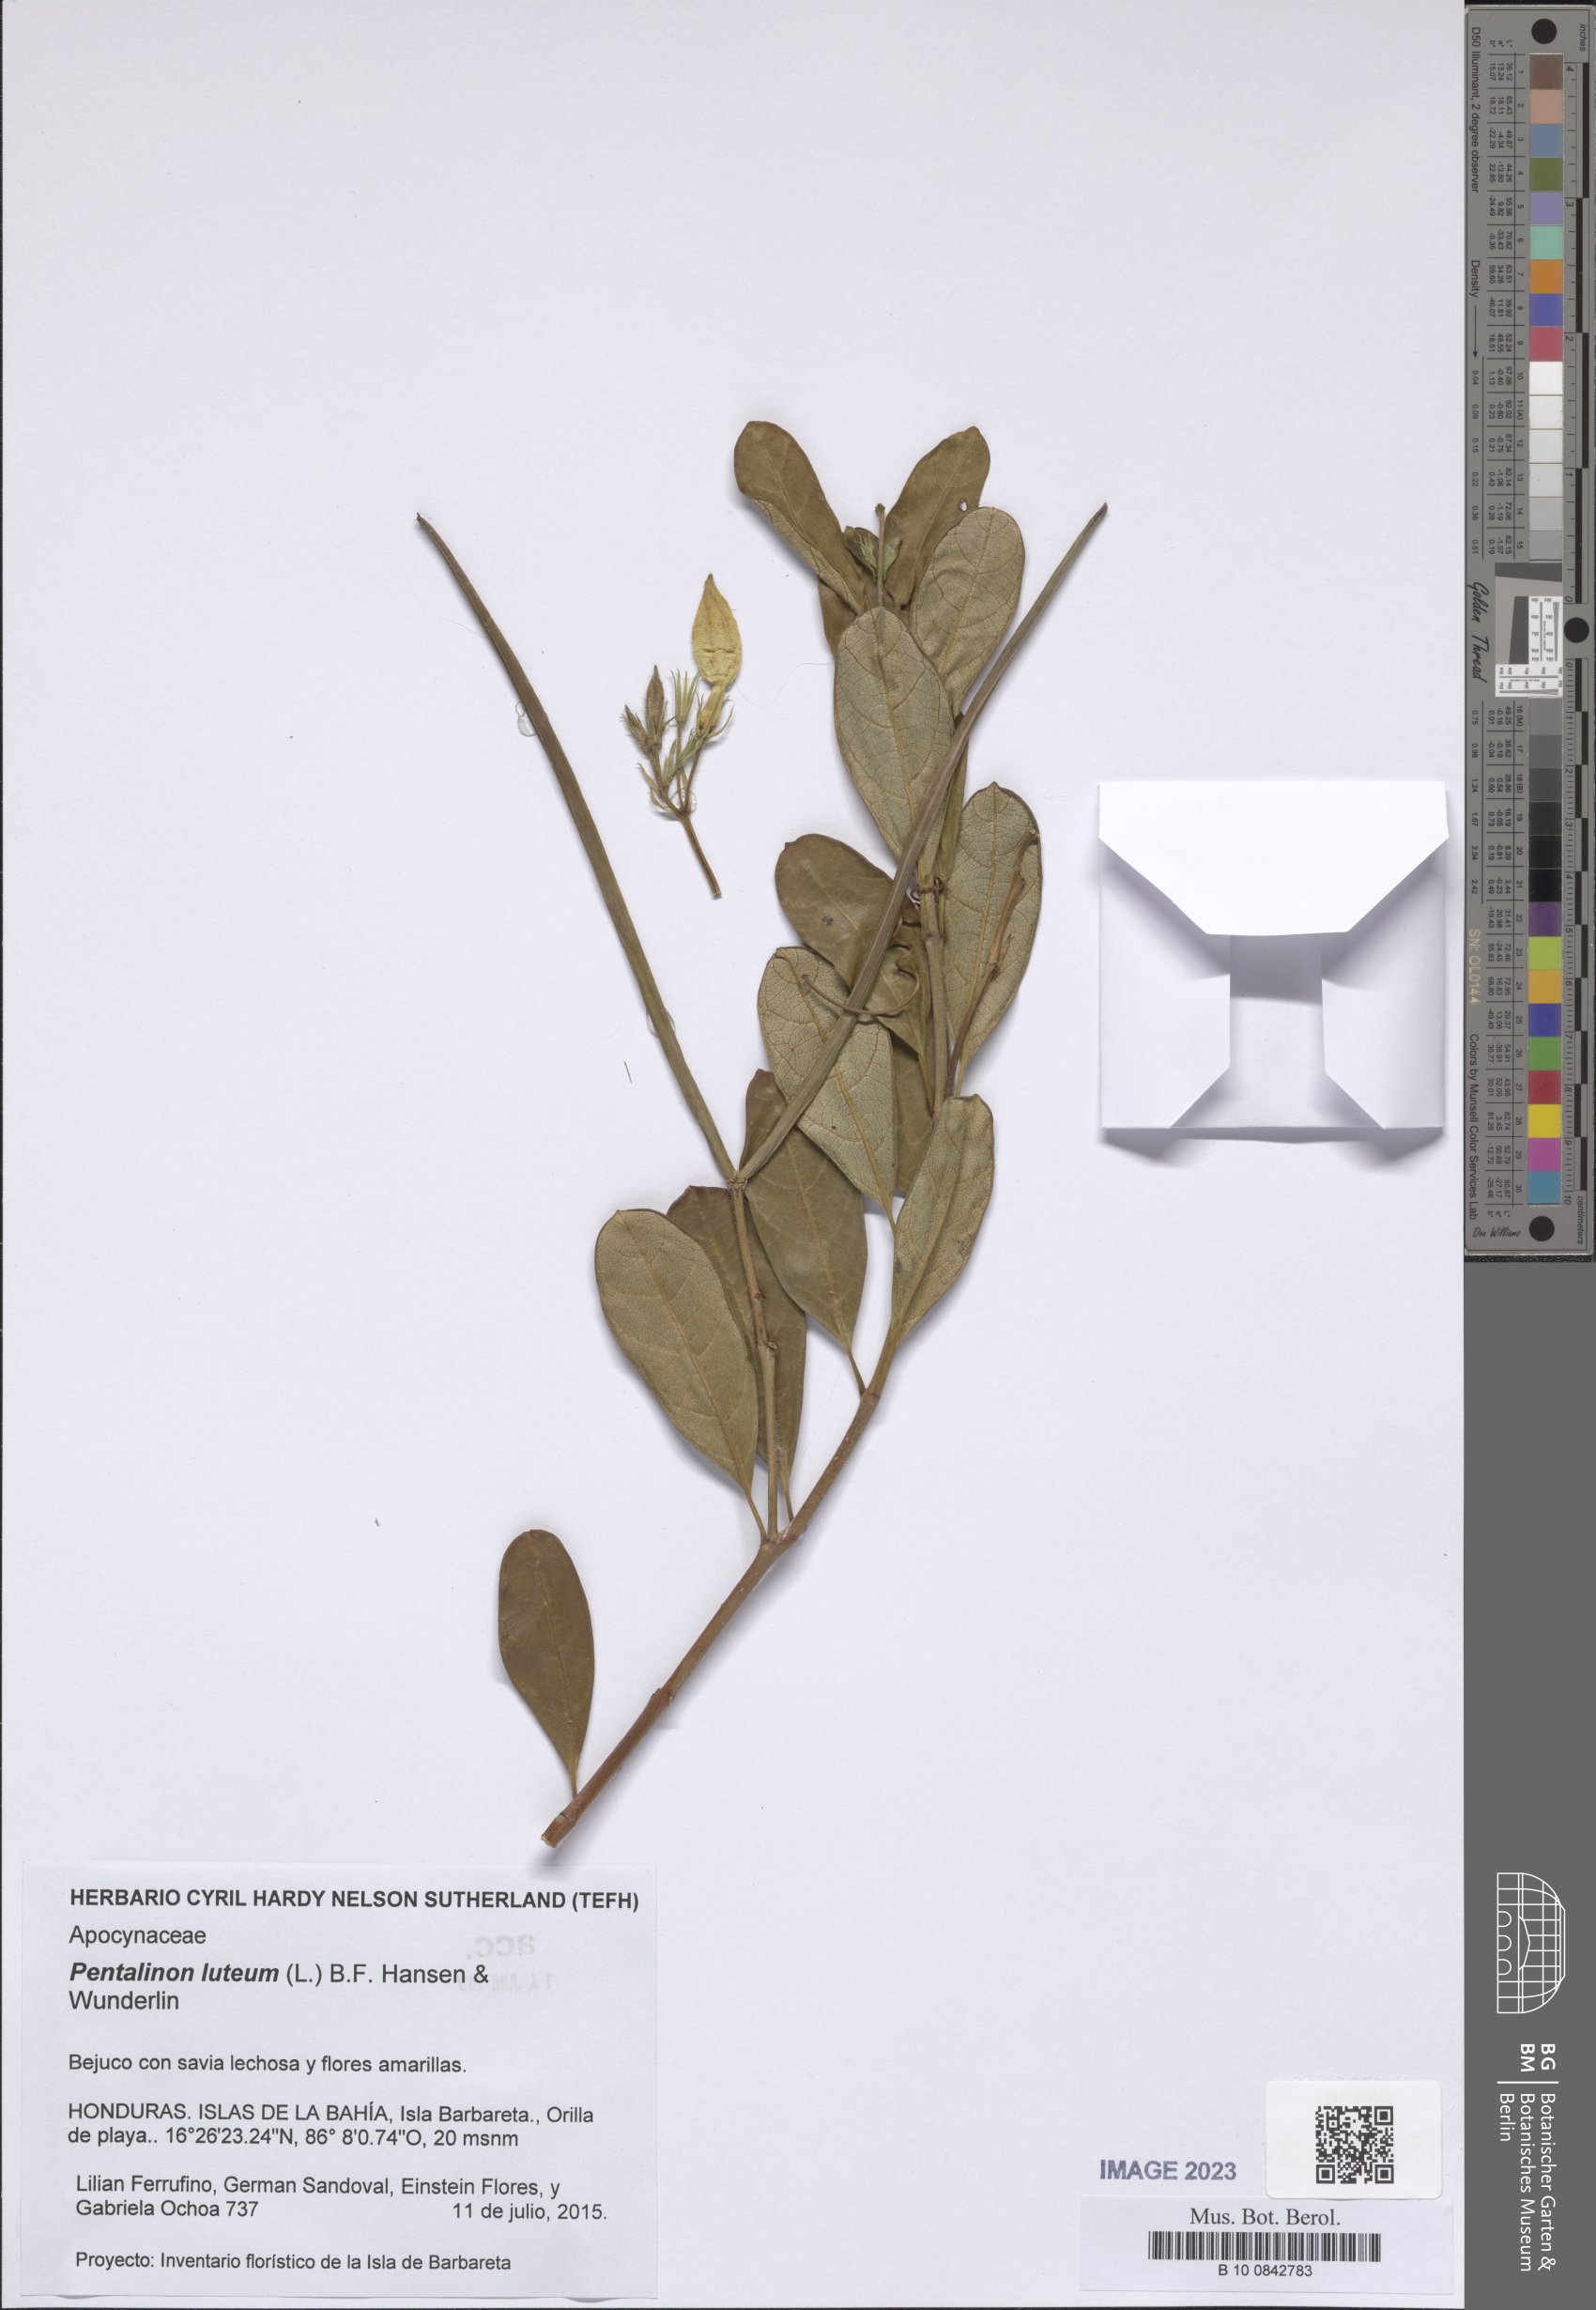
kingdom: Plantae
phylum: Tracheophyta
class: Magnoliopsida
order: Gentianales
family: Apocynaceae
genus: Pentalinon
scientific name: Pentalinon luteum
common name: Licebush
